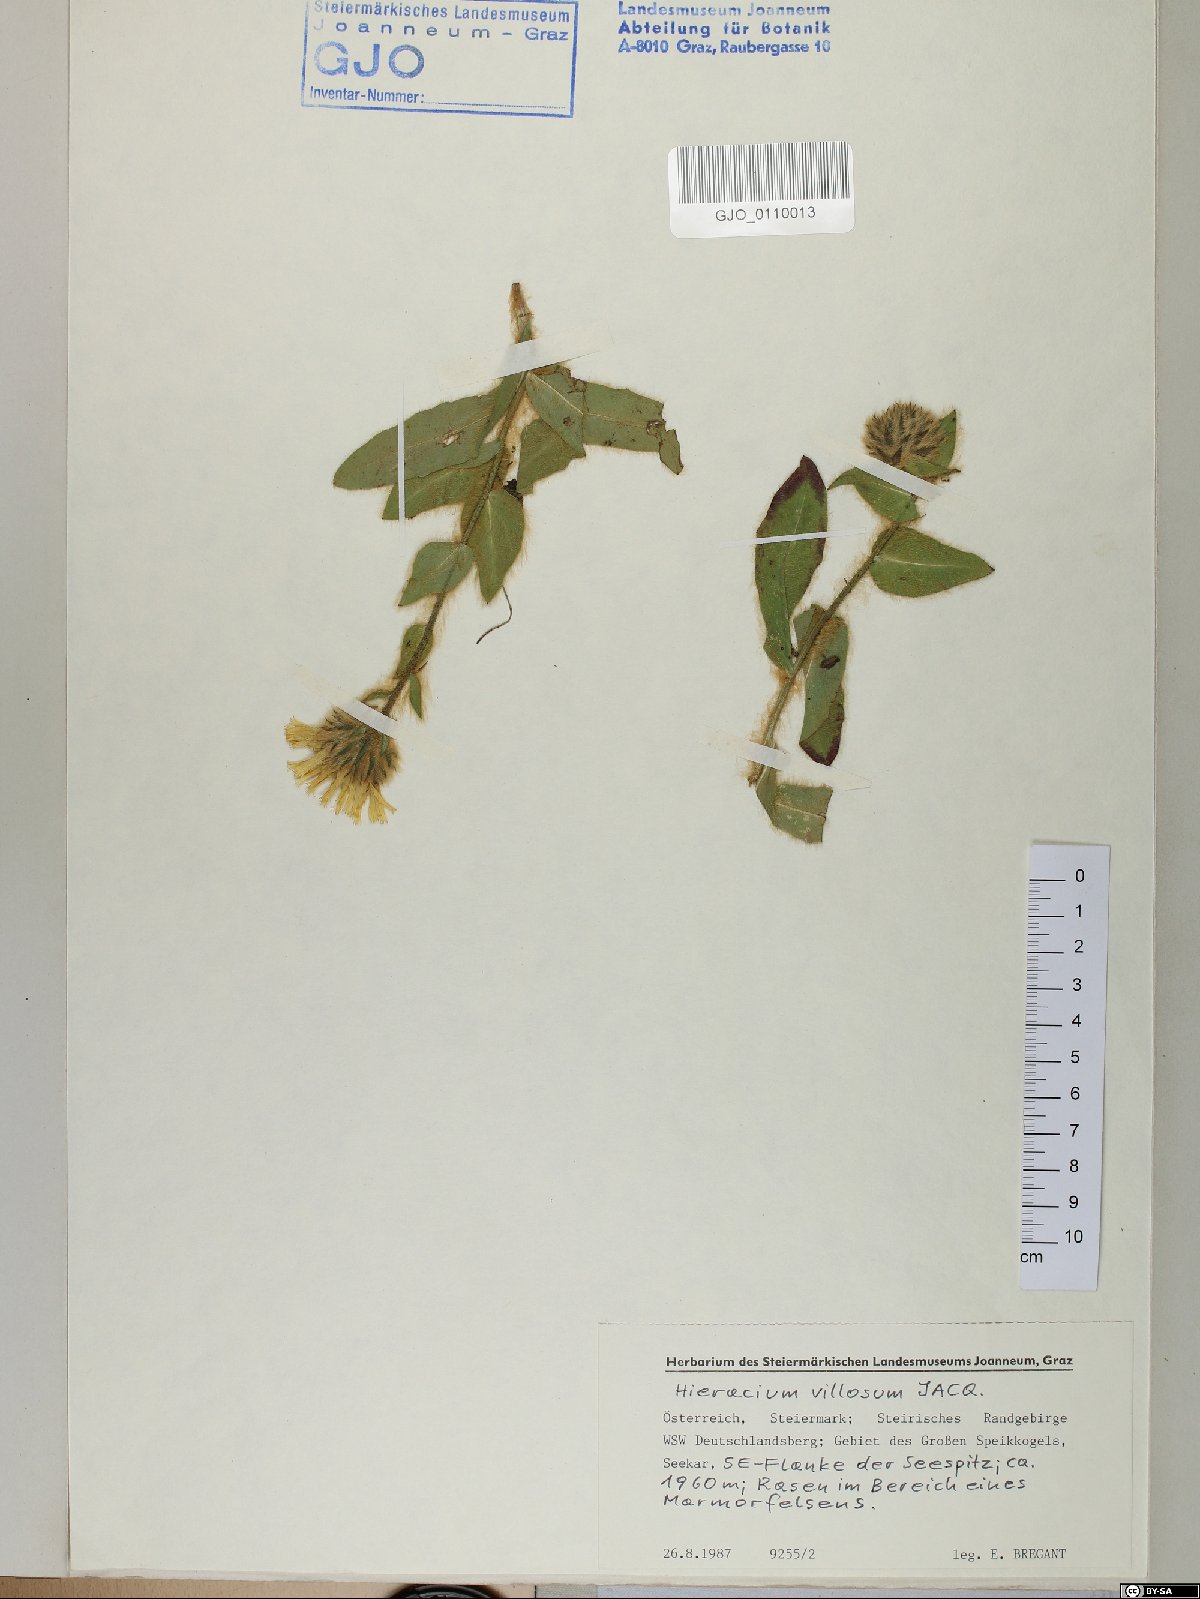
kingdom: Plantae
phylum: Tracheophyta
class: Magnoliopsida
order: Asterales
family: Asteraceae
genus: Hieracium
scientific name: Hieracium villosum
